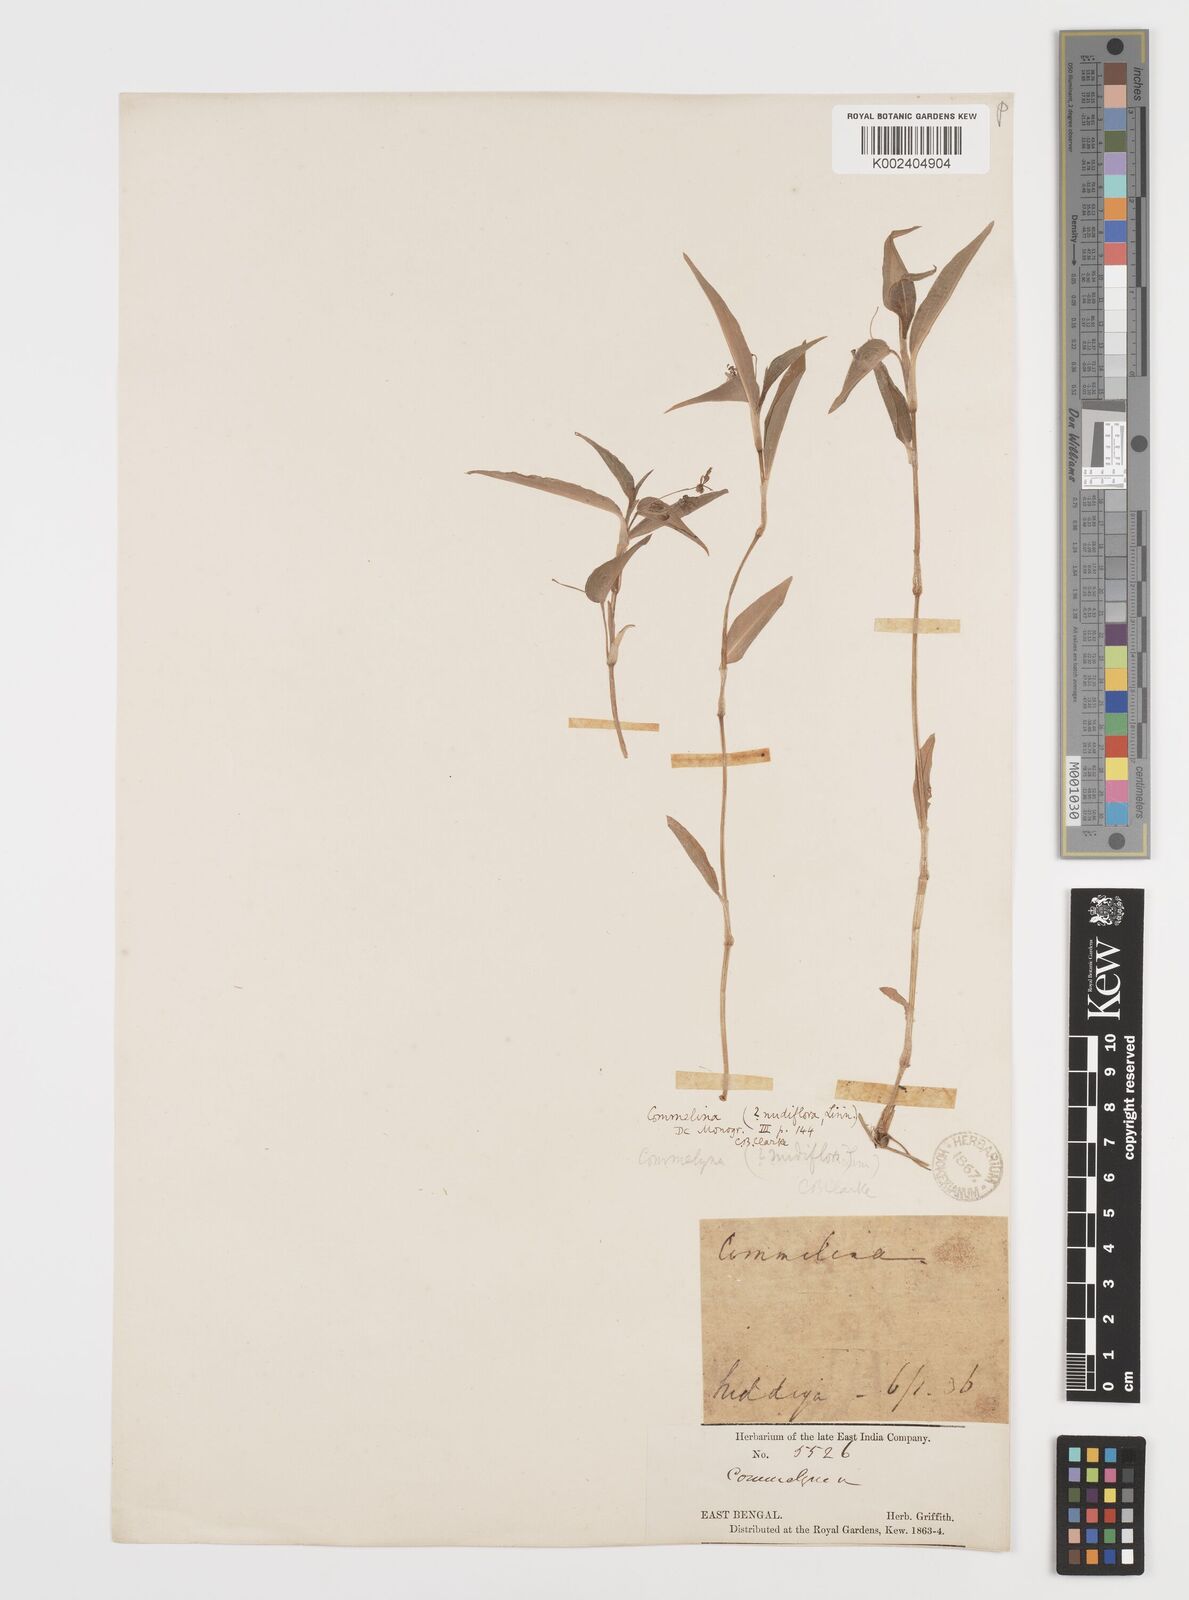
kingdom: Plantae
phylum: Tracheophyta
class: Liliopsida
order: Commelinales
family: Commelinaceae
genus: Commelina
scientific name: Commelina diffusa
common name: Climbing dayflower
